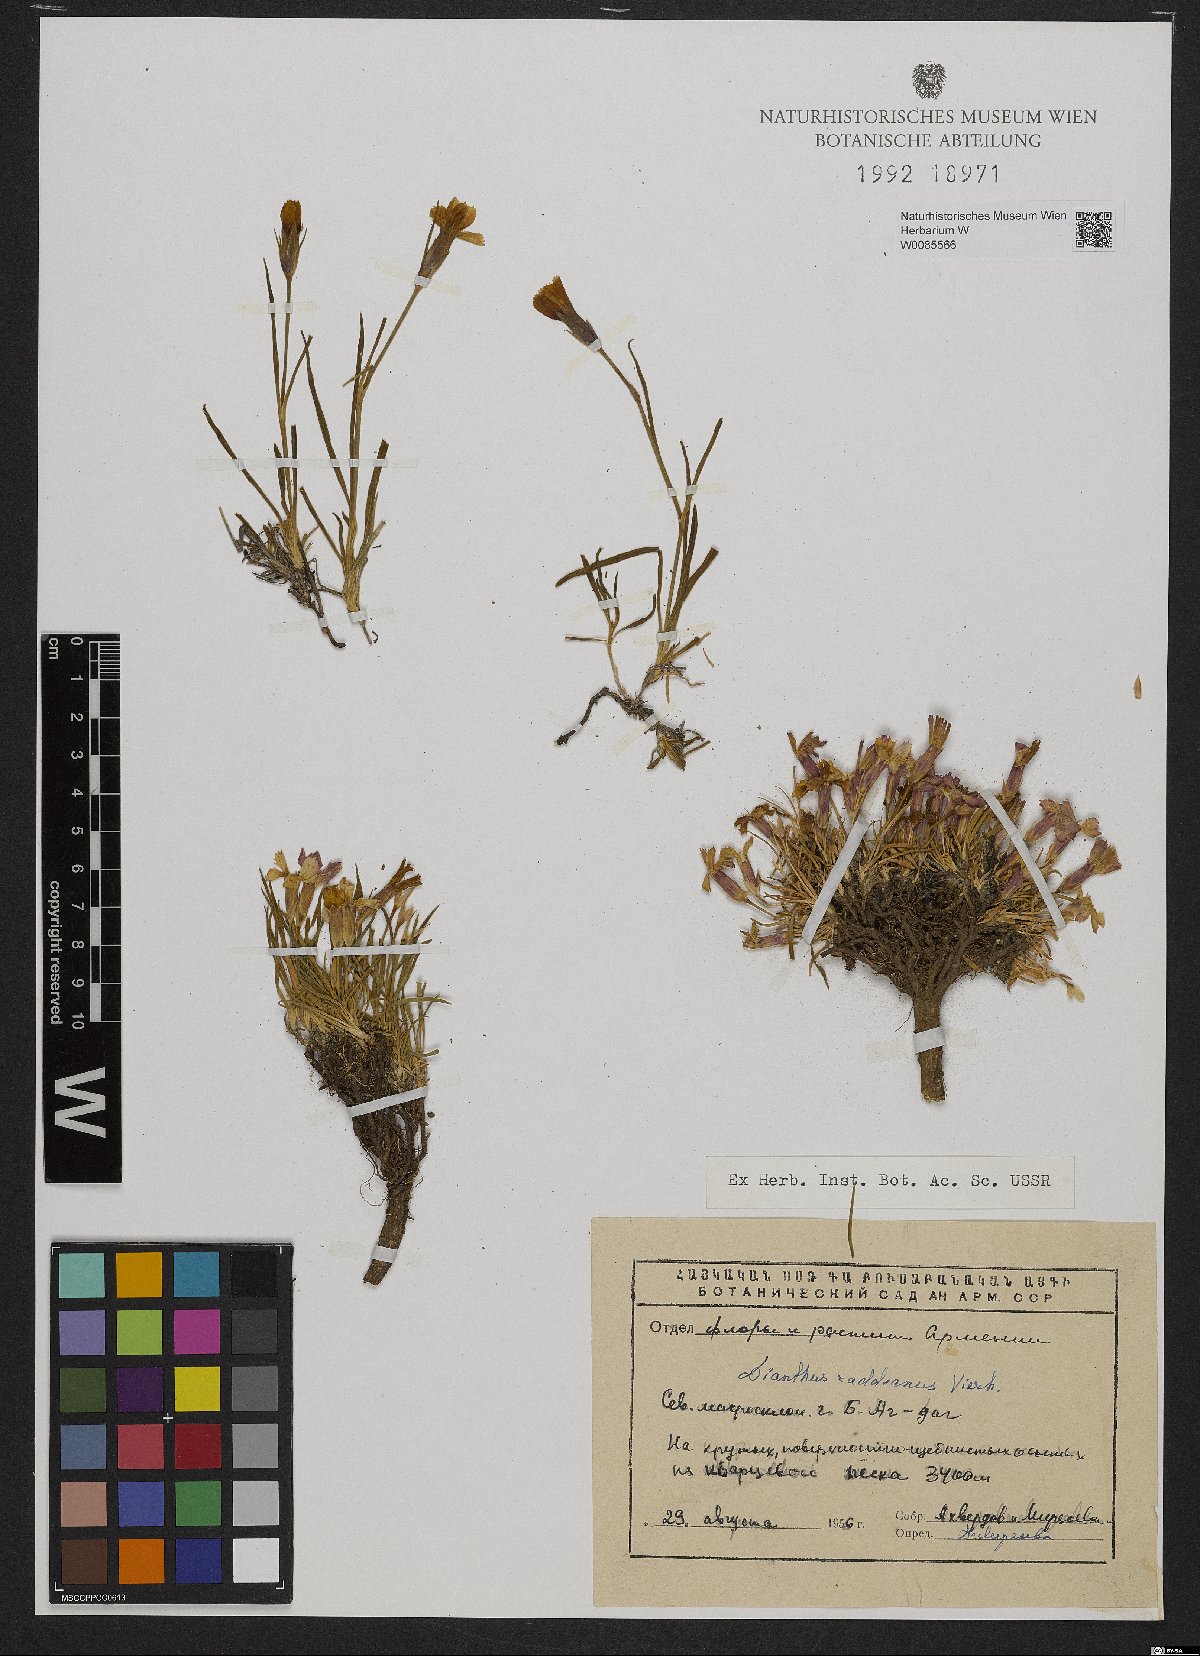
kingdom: Plantae
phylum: Tracheophyta
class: Magnoliopsida
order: Caryophyllales
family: Caryophyllaceae
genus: Dianthus
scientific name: Dianthus raddeanus
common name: Radde's pink
